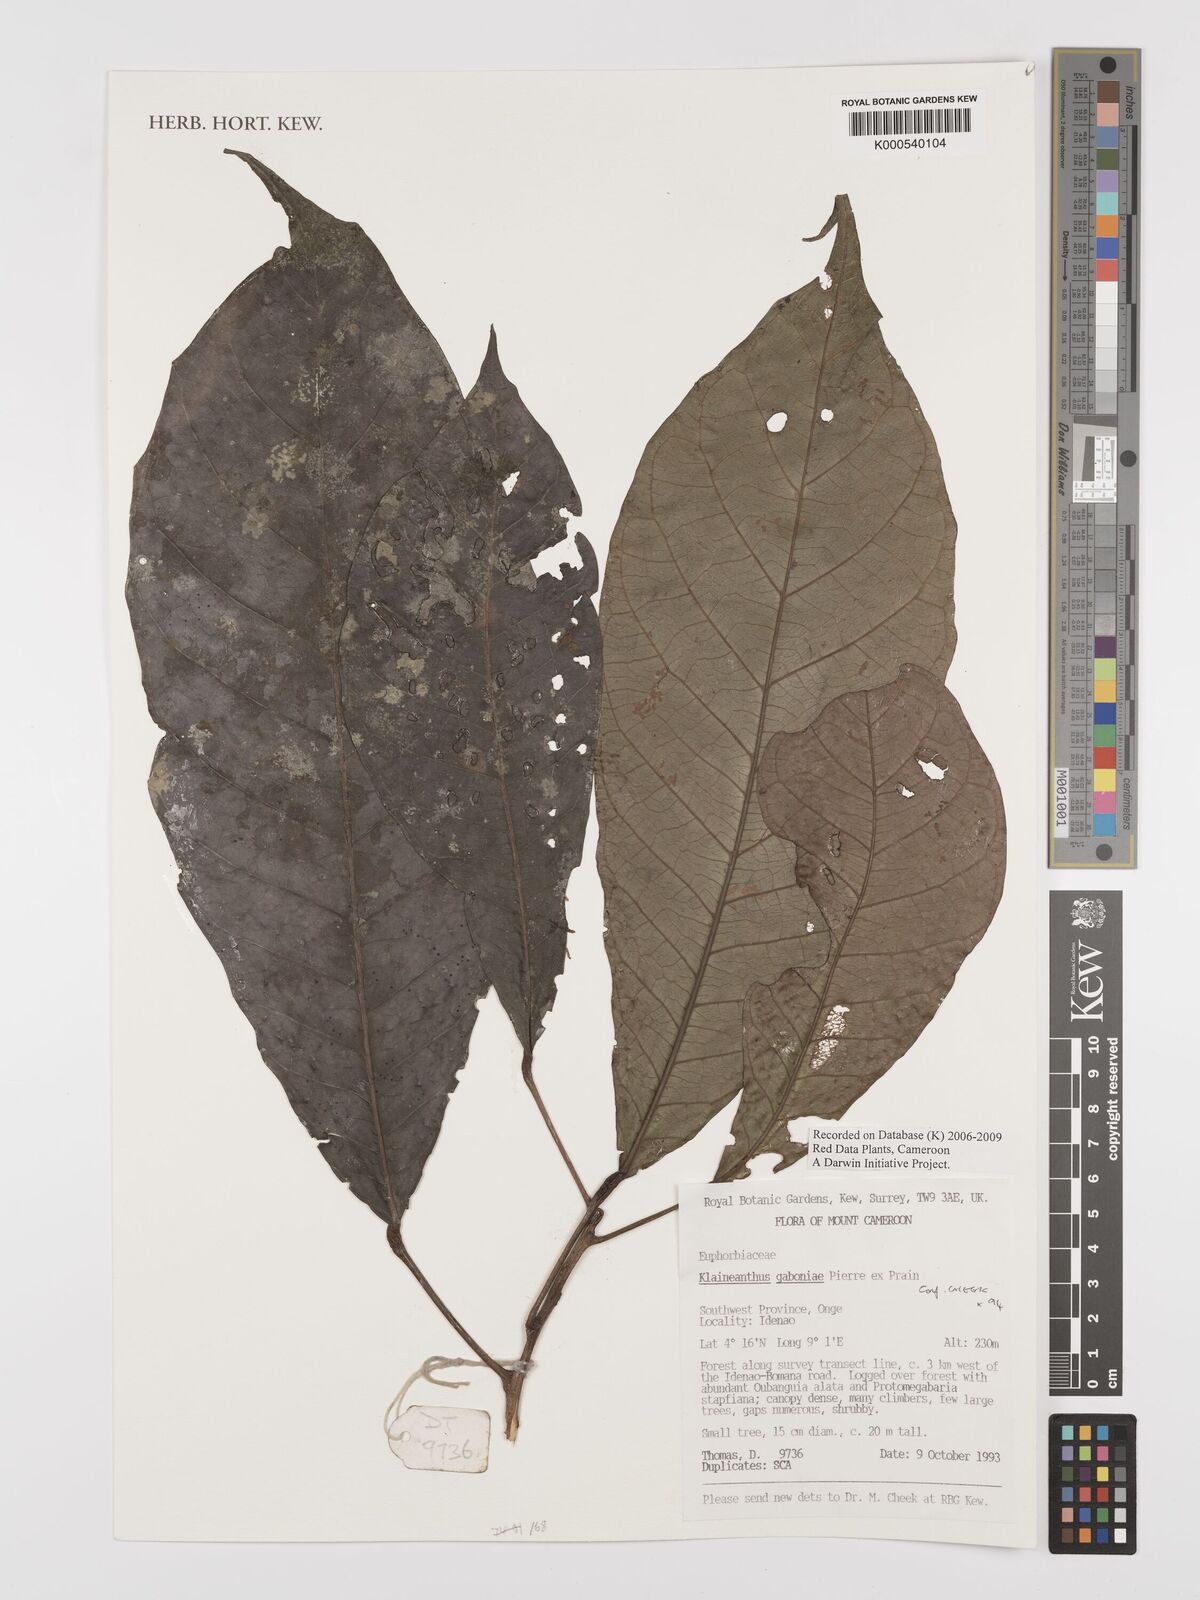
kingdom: Plantae
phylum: Tracheophyta
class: Magnoliopsida
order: Malpighiales
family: Euphorbiaceae
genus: Klaineanthus
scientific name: Klaineanthus
